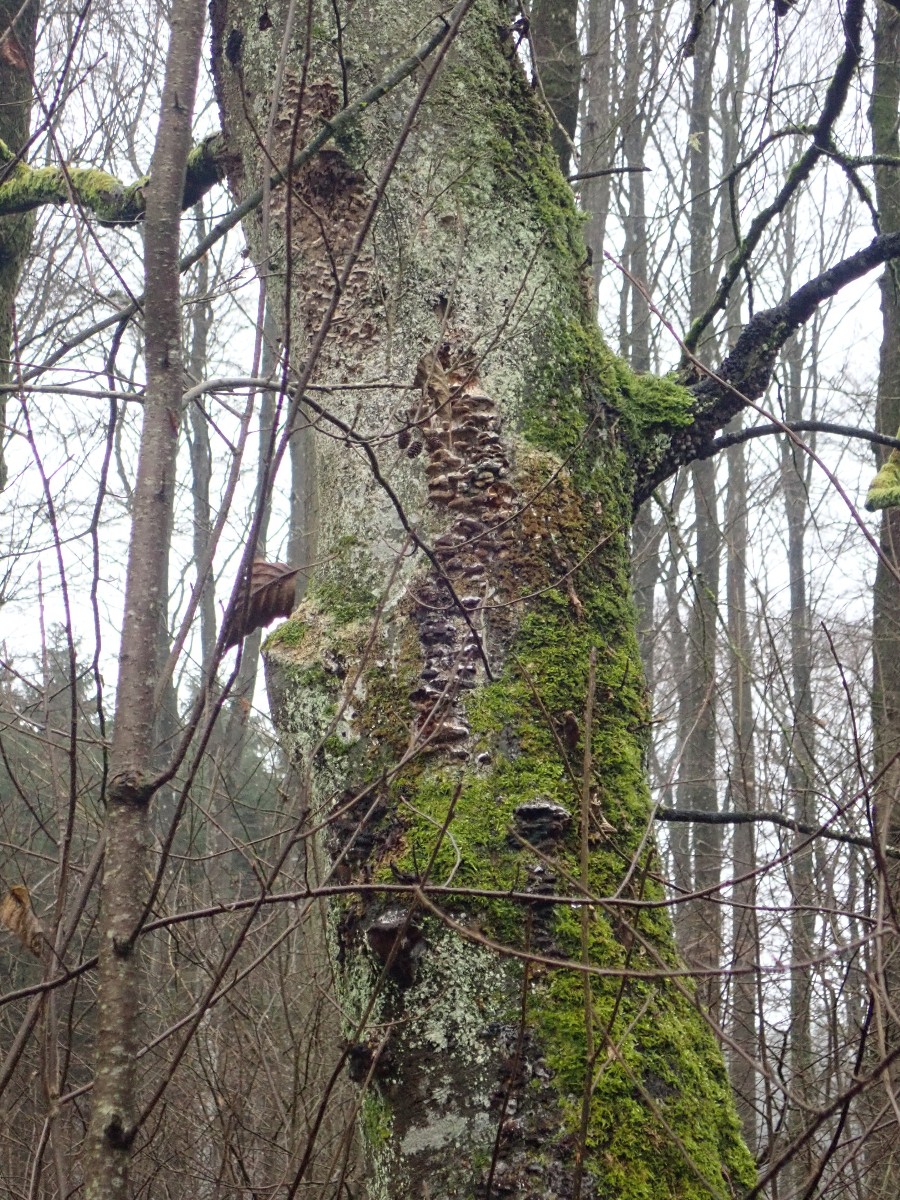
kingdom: Fungi
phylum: Basidiomycota
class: Agaricomycetes
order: Hymenochaetales
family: Hymenochaetaceae
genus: Xanthoporia
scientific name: Xanthoporia radiata
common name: elle-spejlporesvamp
